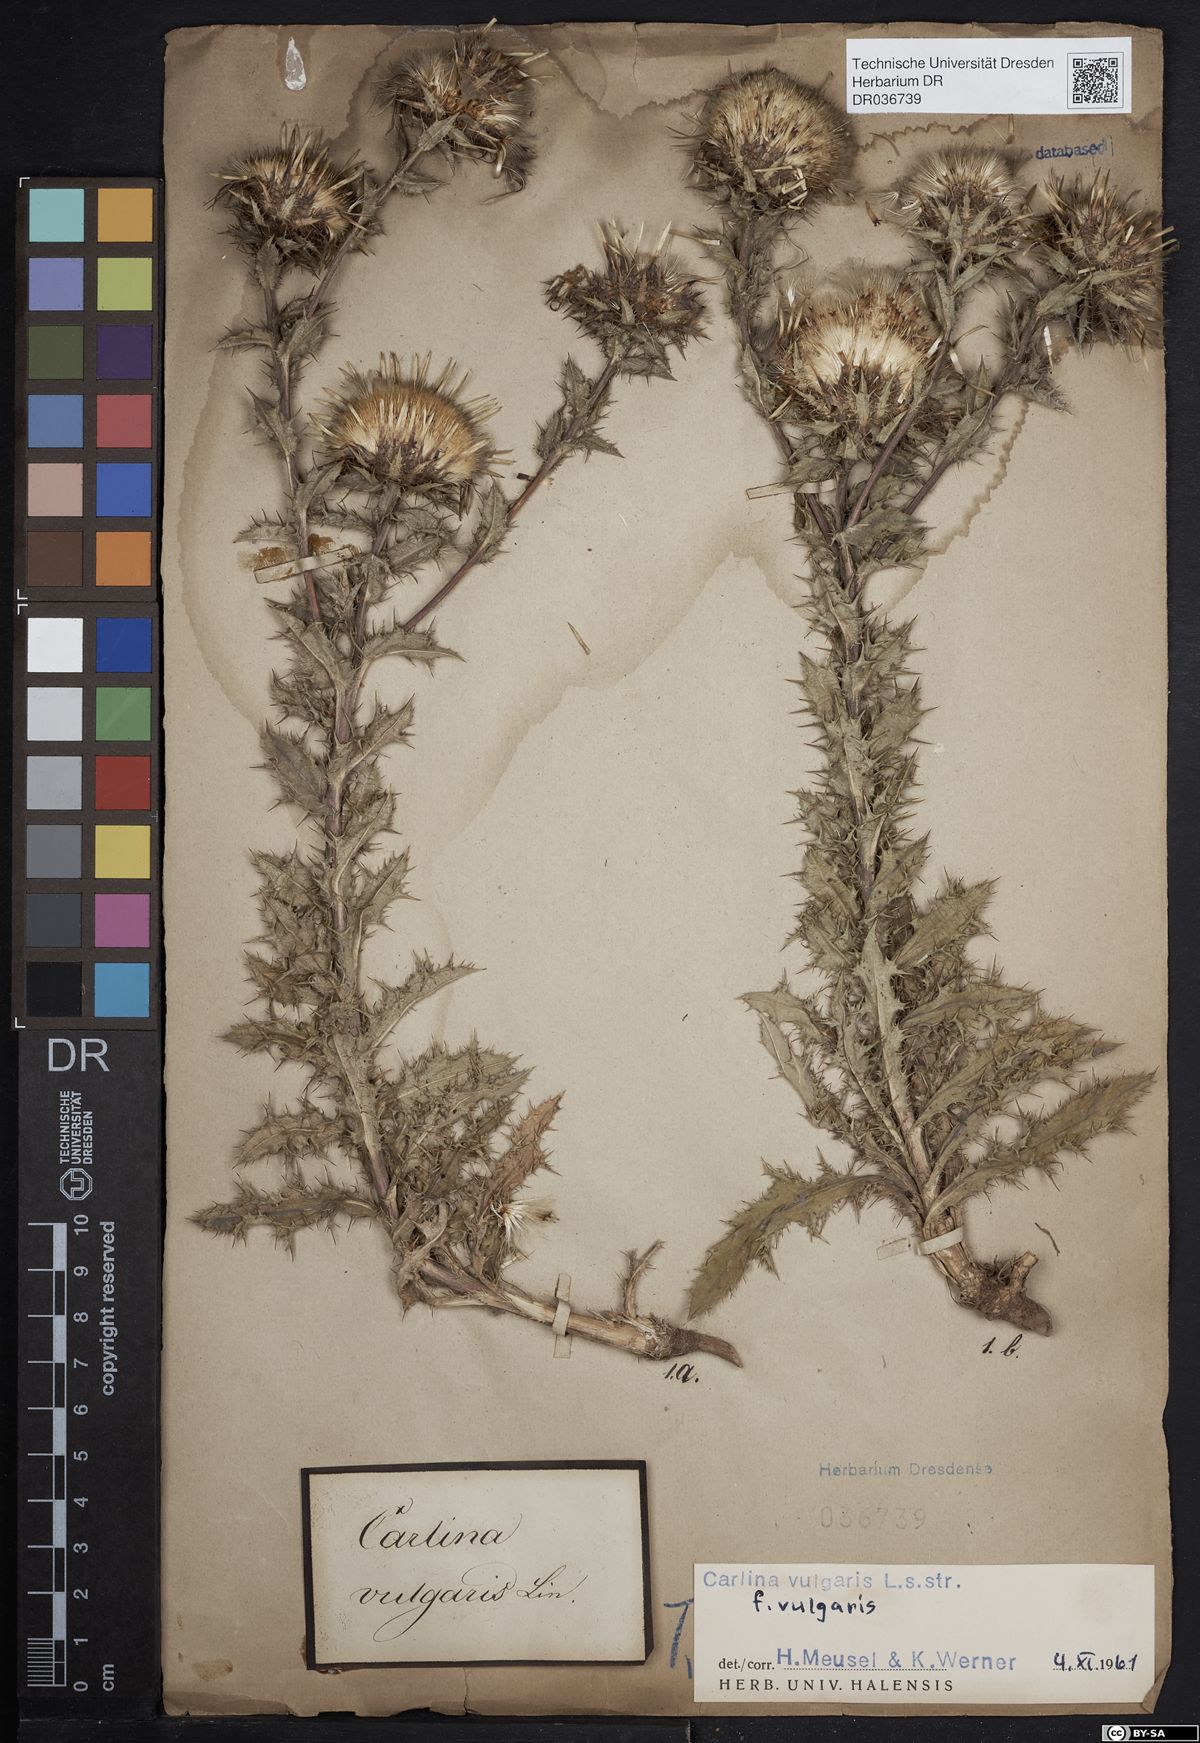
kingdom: Plantae
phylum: Tracheophyta
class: Magnoliopsida
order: Asterales
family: Asteraceae
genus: Carlina
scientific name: Carlina vulgaris
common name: Carline thistle
